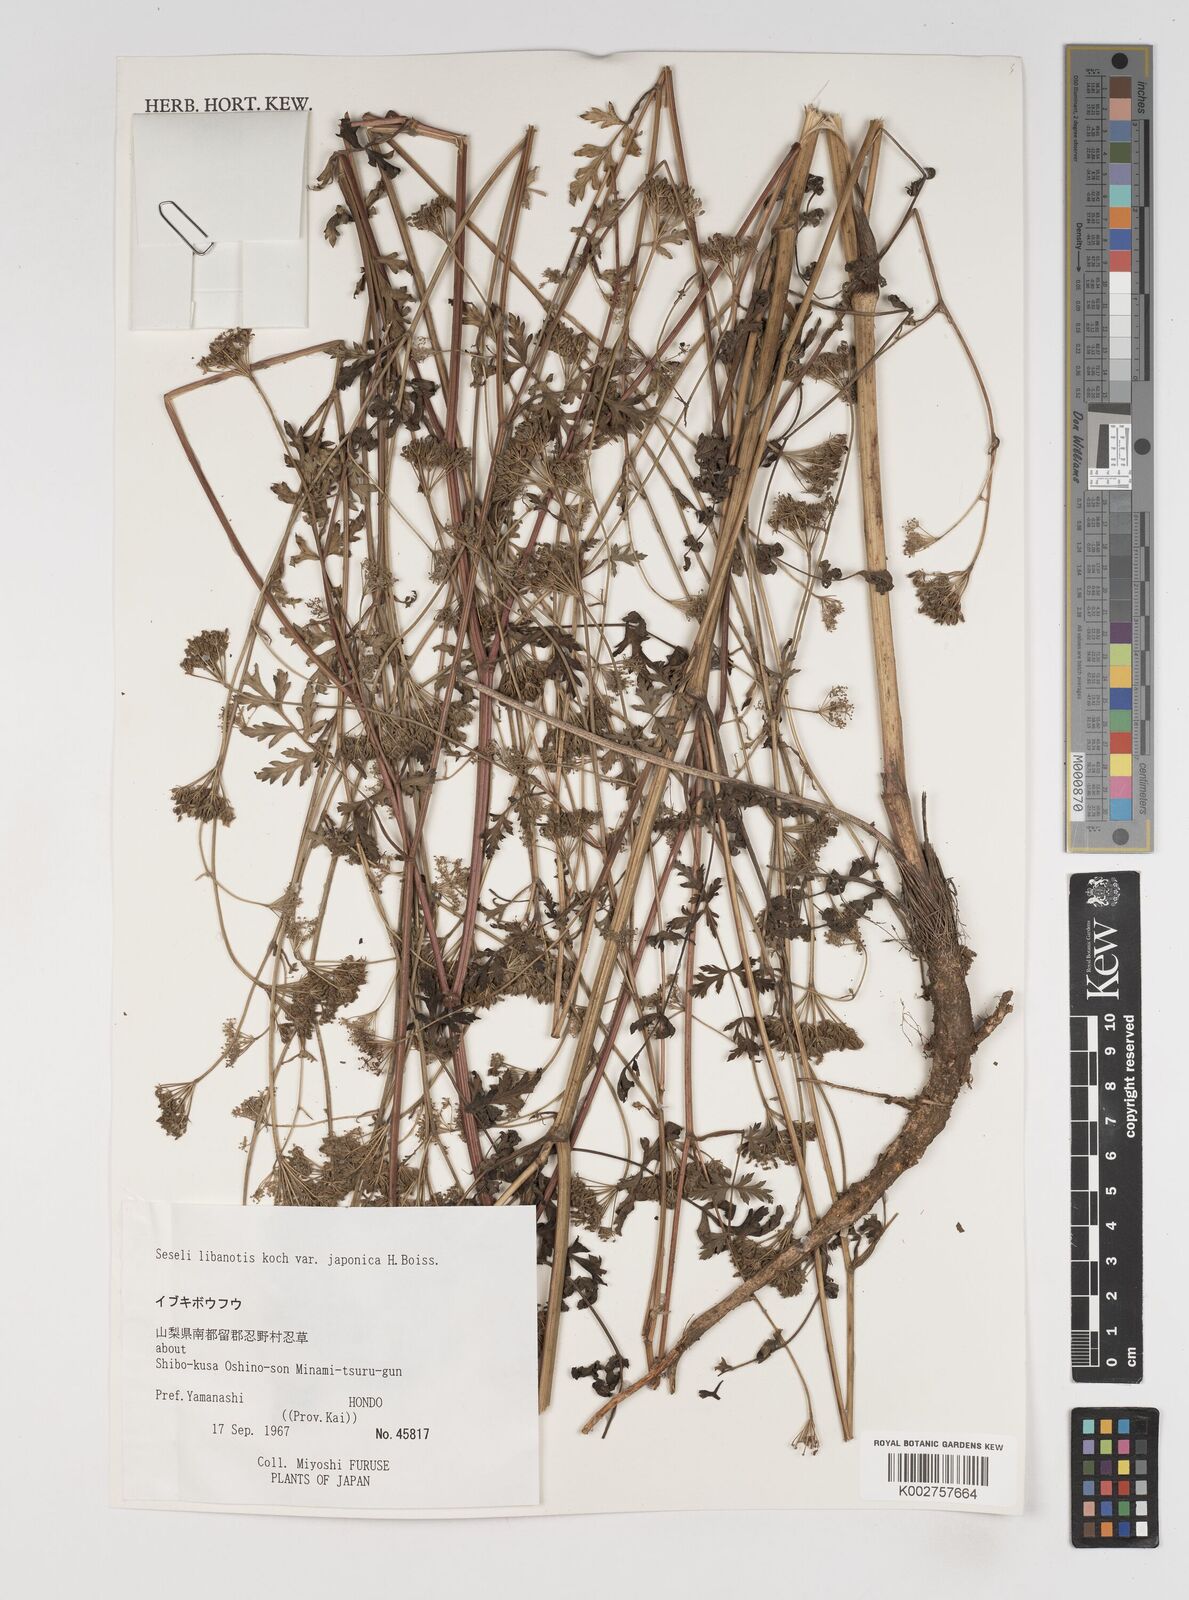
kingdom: Plantae
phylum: Tracheophyta
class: Magnoliopsida
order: Apiales
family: Apiaceae
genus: Seseli
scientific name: Seseli libanotis
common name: Mooncarrot
